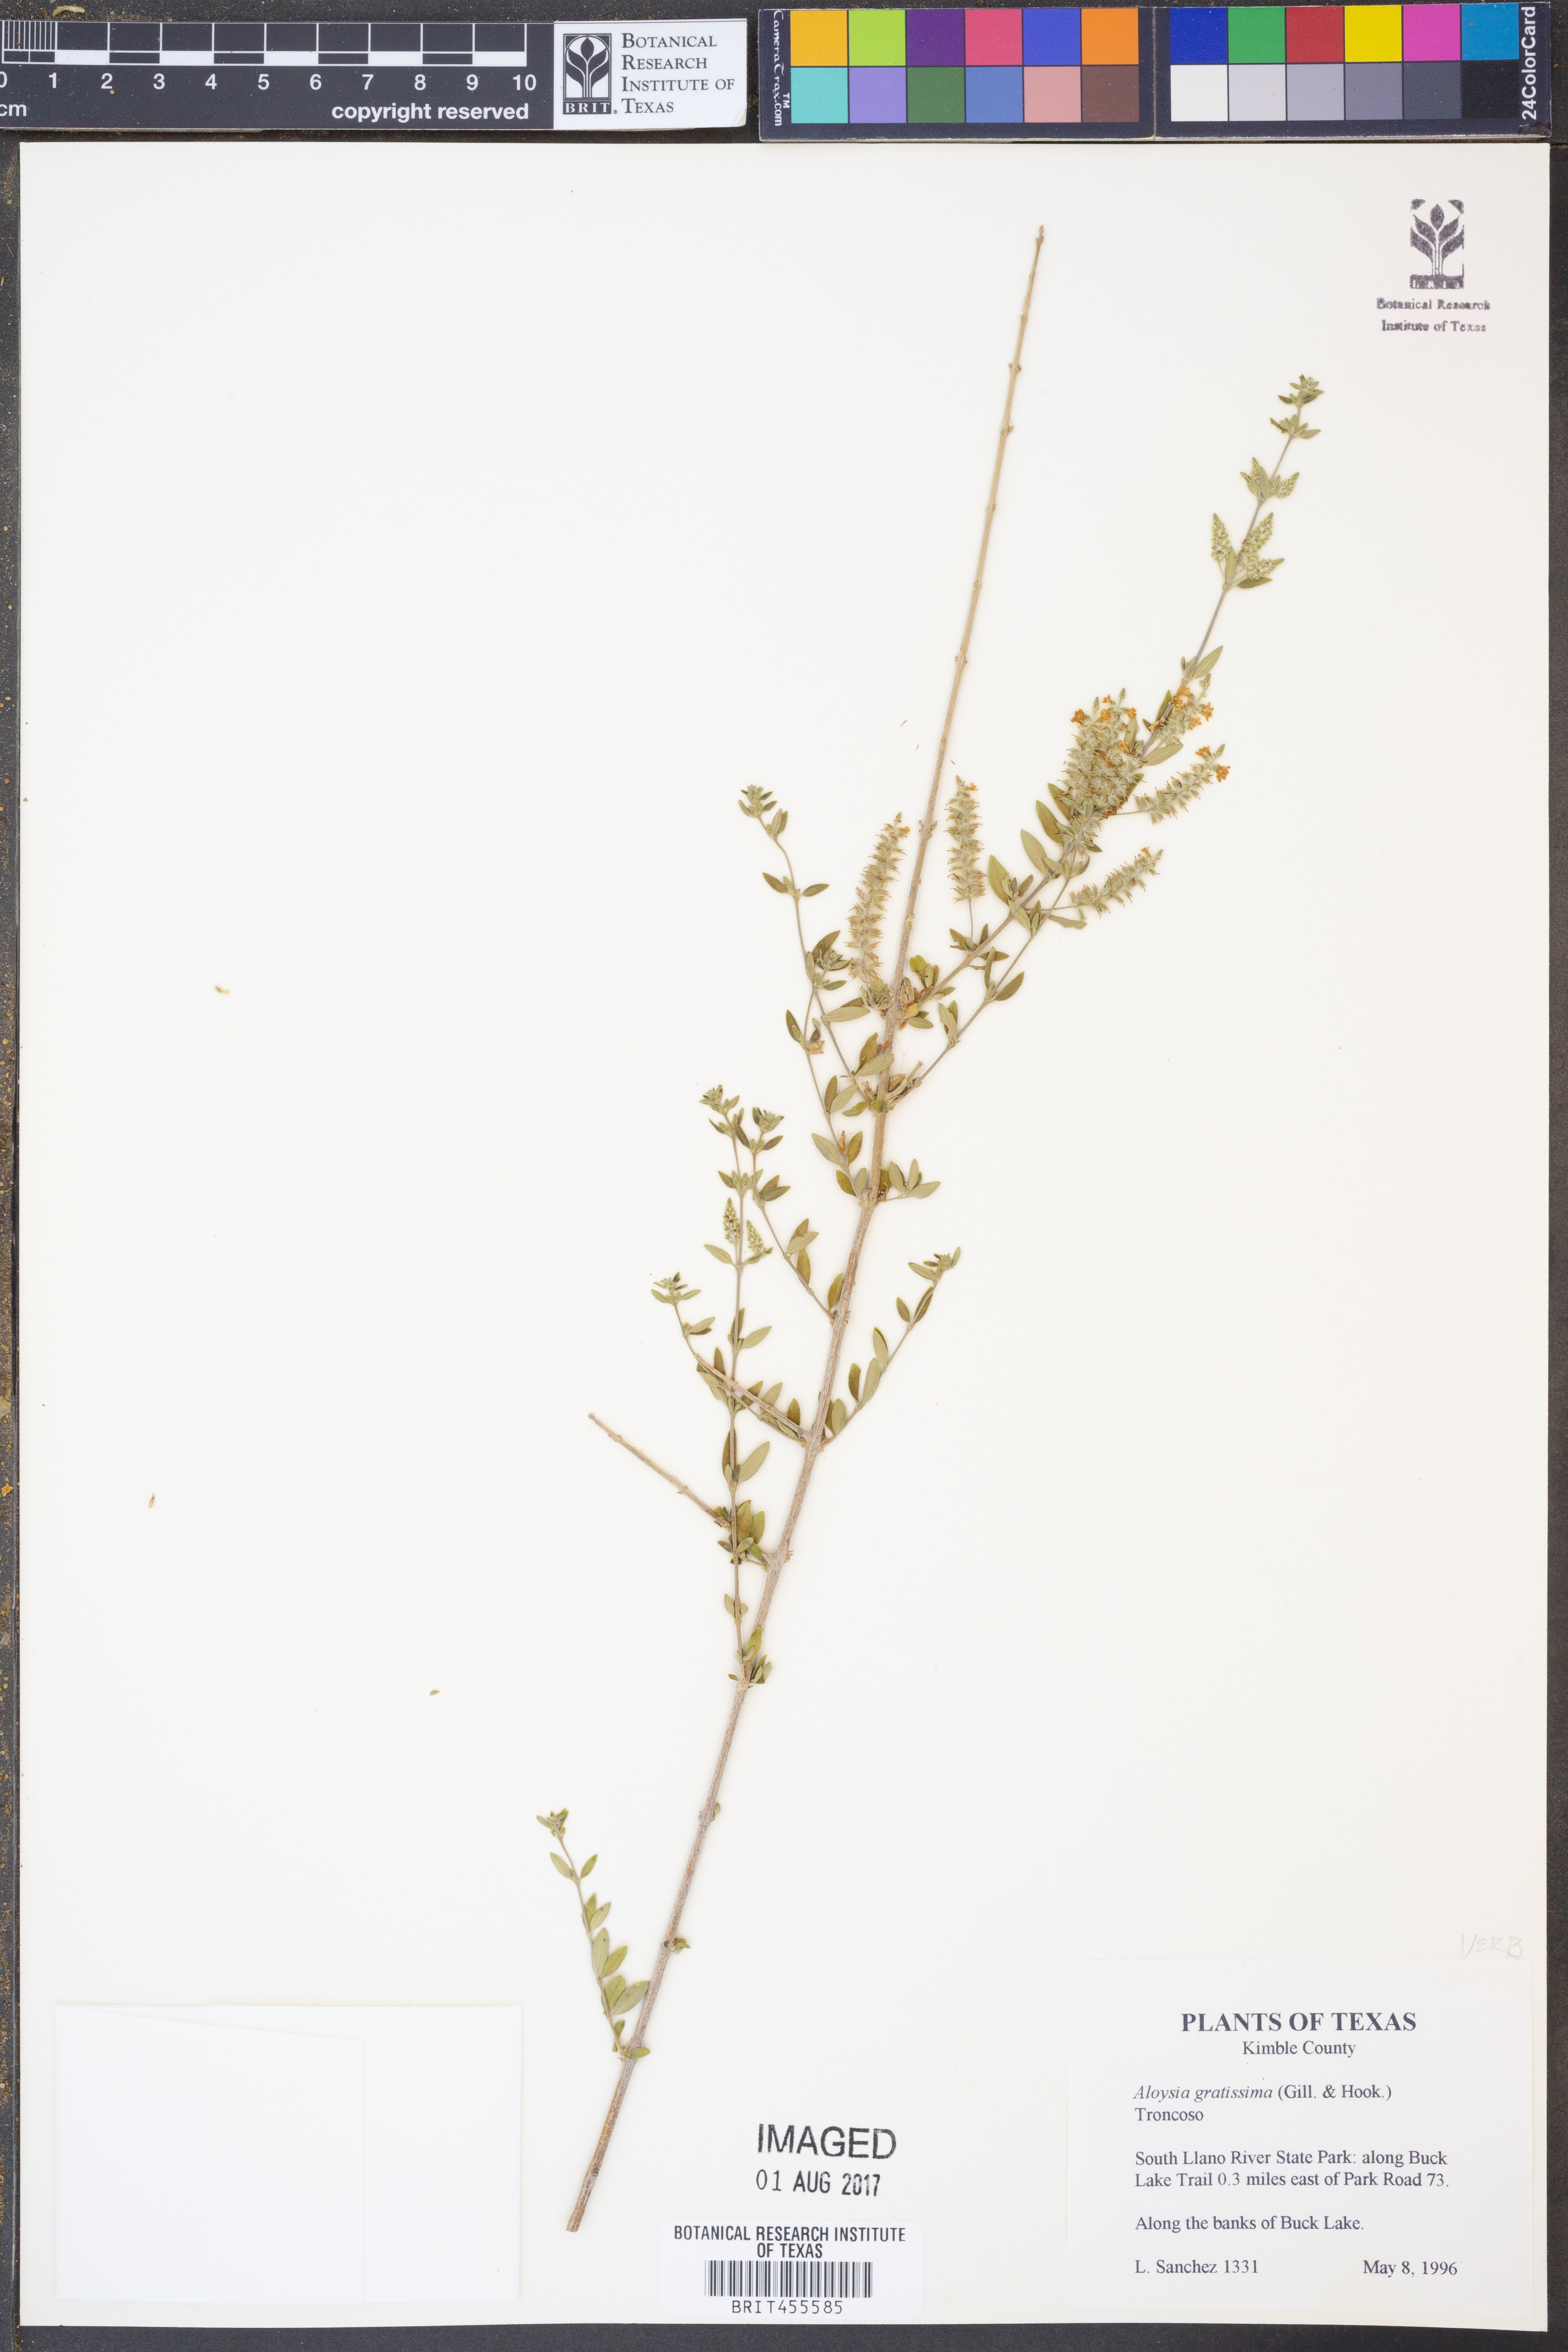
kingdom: Plantae
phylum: Tracheophyta
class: Magnoliopsida
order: Lamiales
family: Verbenaceae
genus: Aloysia
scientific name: Aloysia gratissima
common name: Common bee-brush
